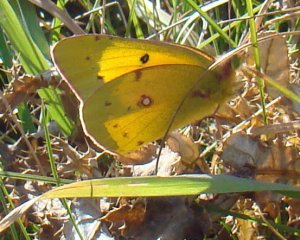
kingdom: Animalia
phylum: Arthropoda
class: Insecta
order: Lepidoptera
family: Pieridae
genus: Colias
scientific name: Colias eurytheme
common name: Orange Sulphur
